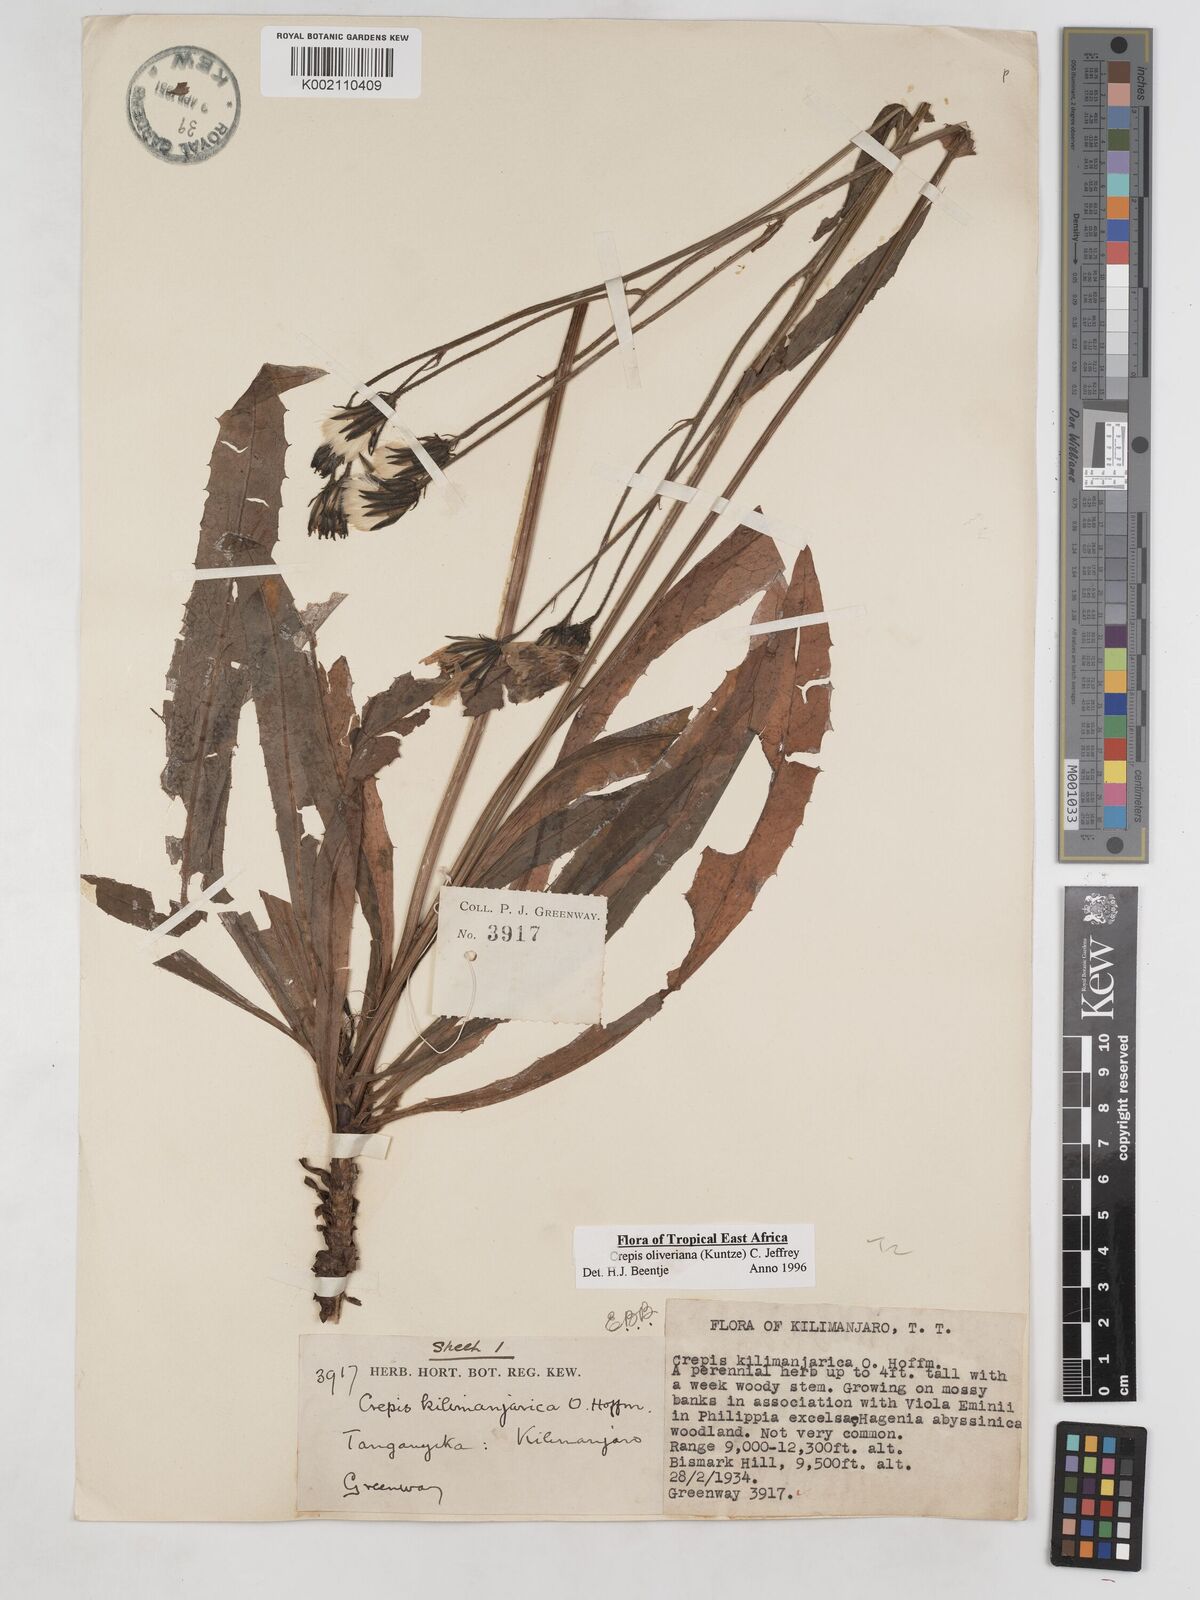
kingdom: Plantae
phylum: Tracheophyta
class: Magnoliopsida
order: Asterales
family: Asteraceae
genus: Crepis
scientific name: Crepis hypochoeridea
